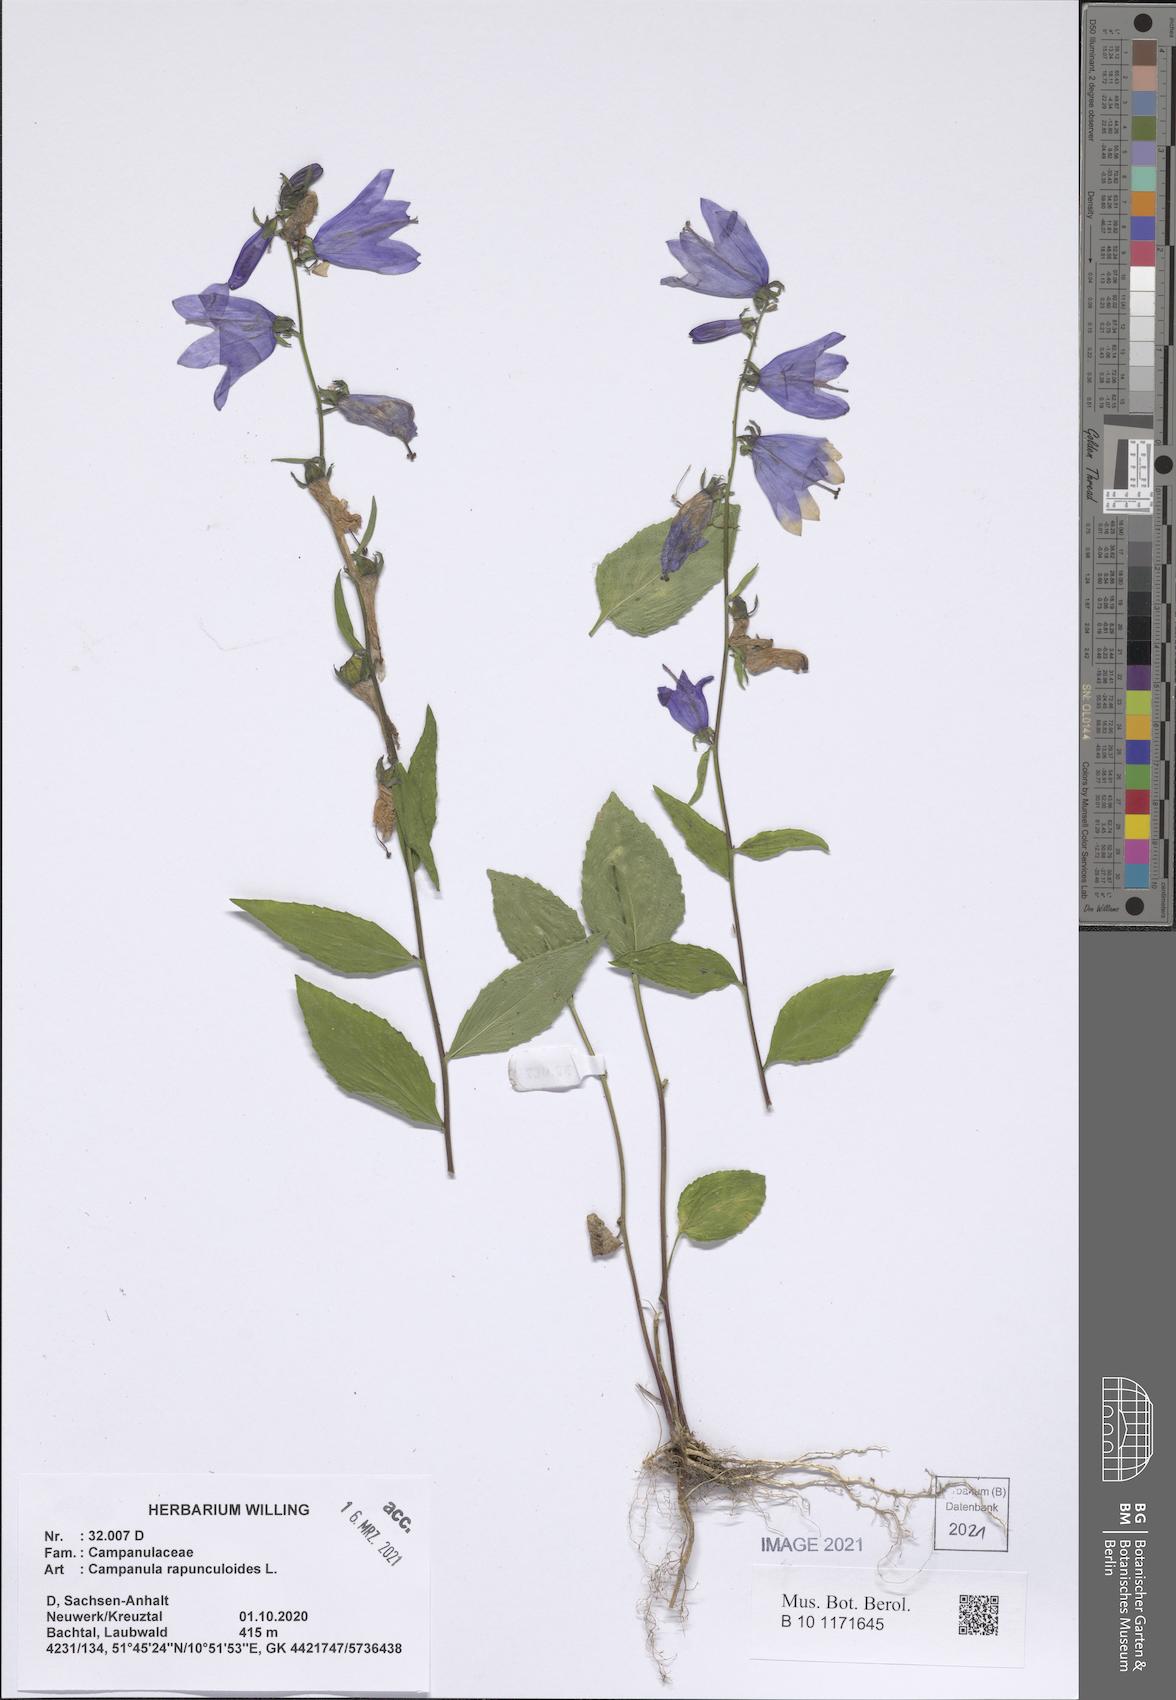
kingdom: Plantae
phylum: Tracheophyta
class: Magnoliopsida
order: Asterales
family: Campanulaceae
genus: Campanula
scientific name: Campanula rapunculoides
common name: Creeping bellflower
